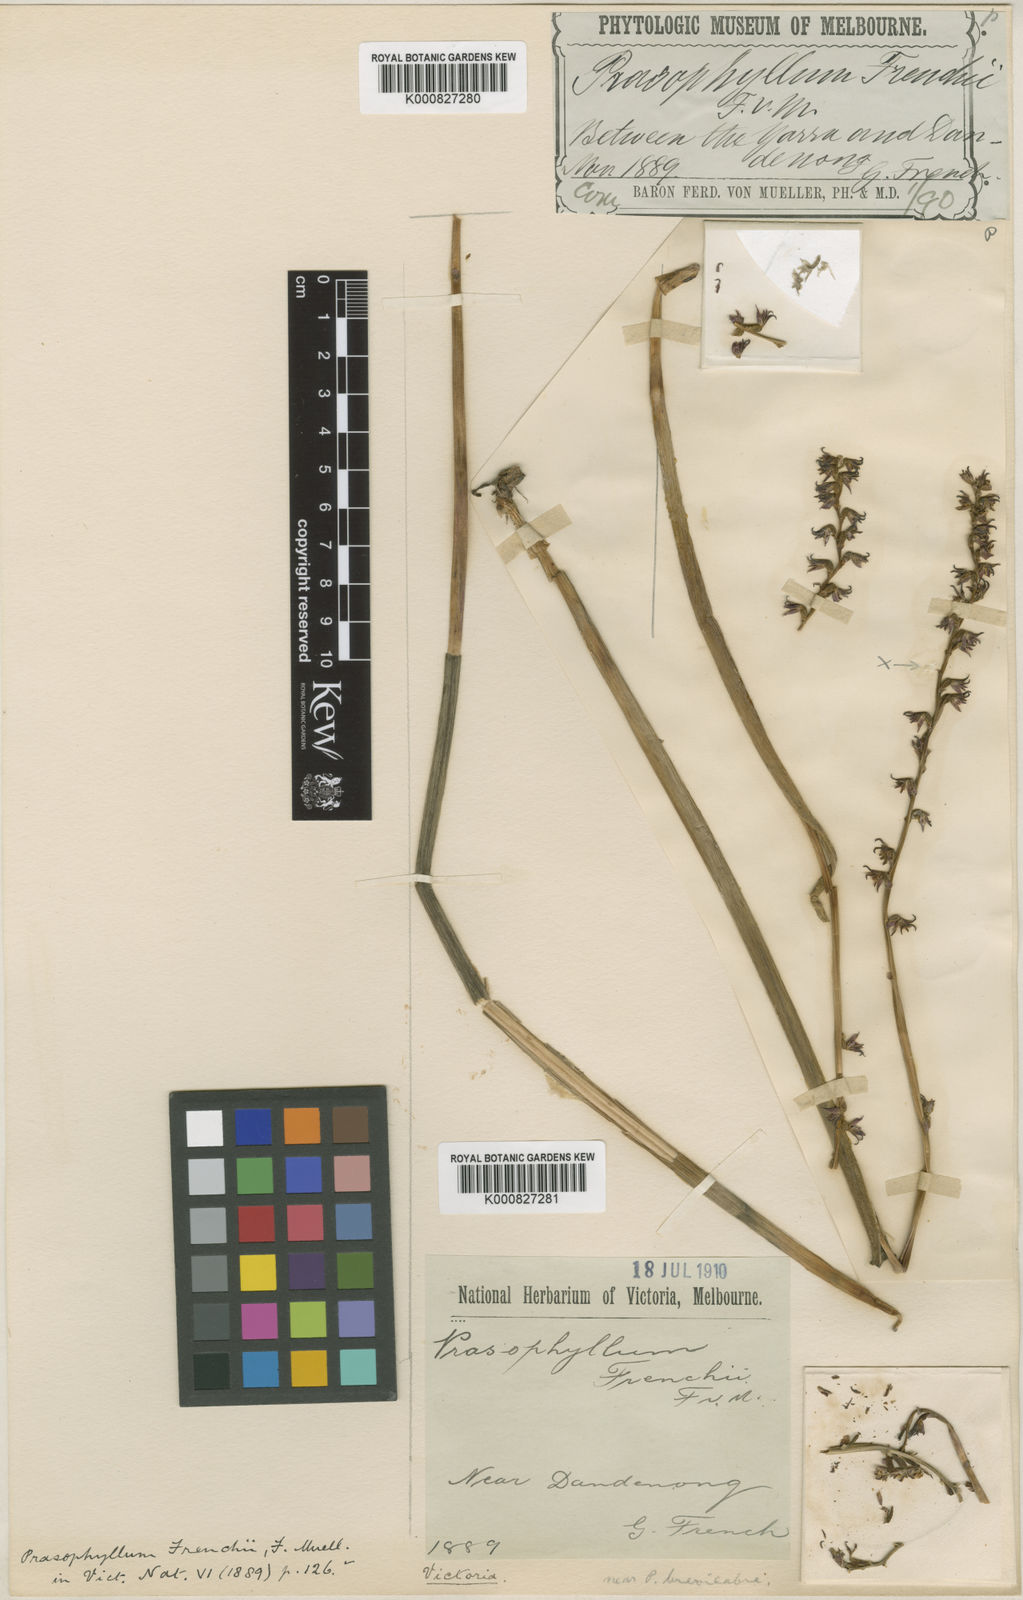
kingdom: Plantae
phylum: Tracheophyta
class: Liliopsida
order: Asparagales
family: Orchidaceae
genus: Prasophyllum
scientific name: Prasophyllum frenchii
